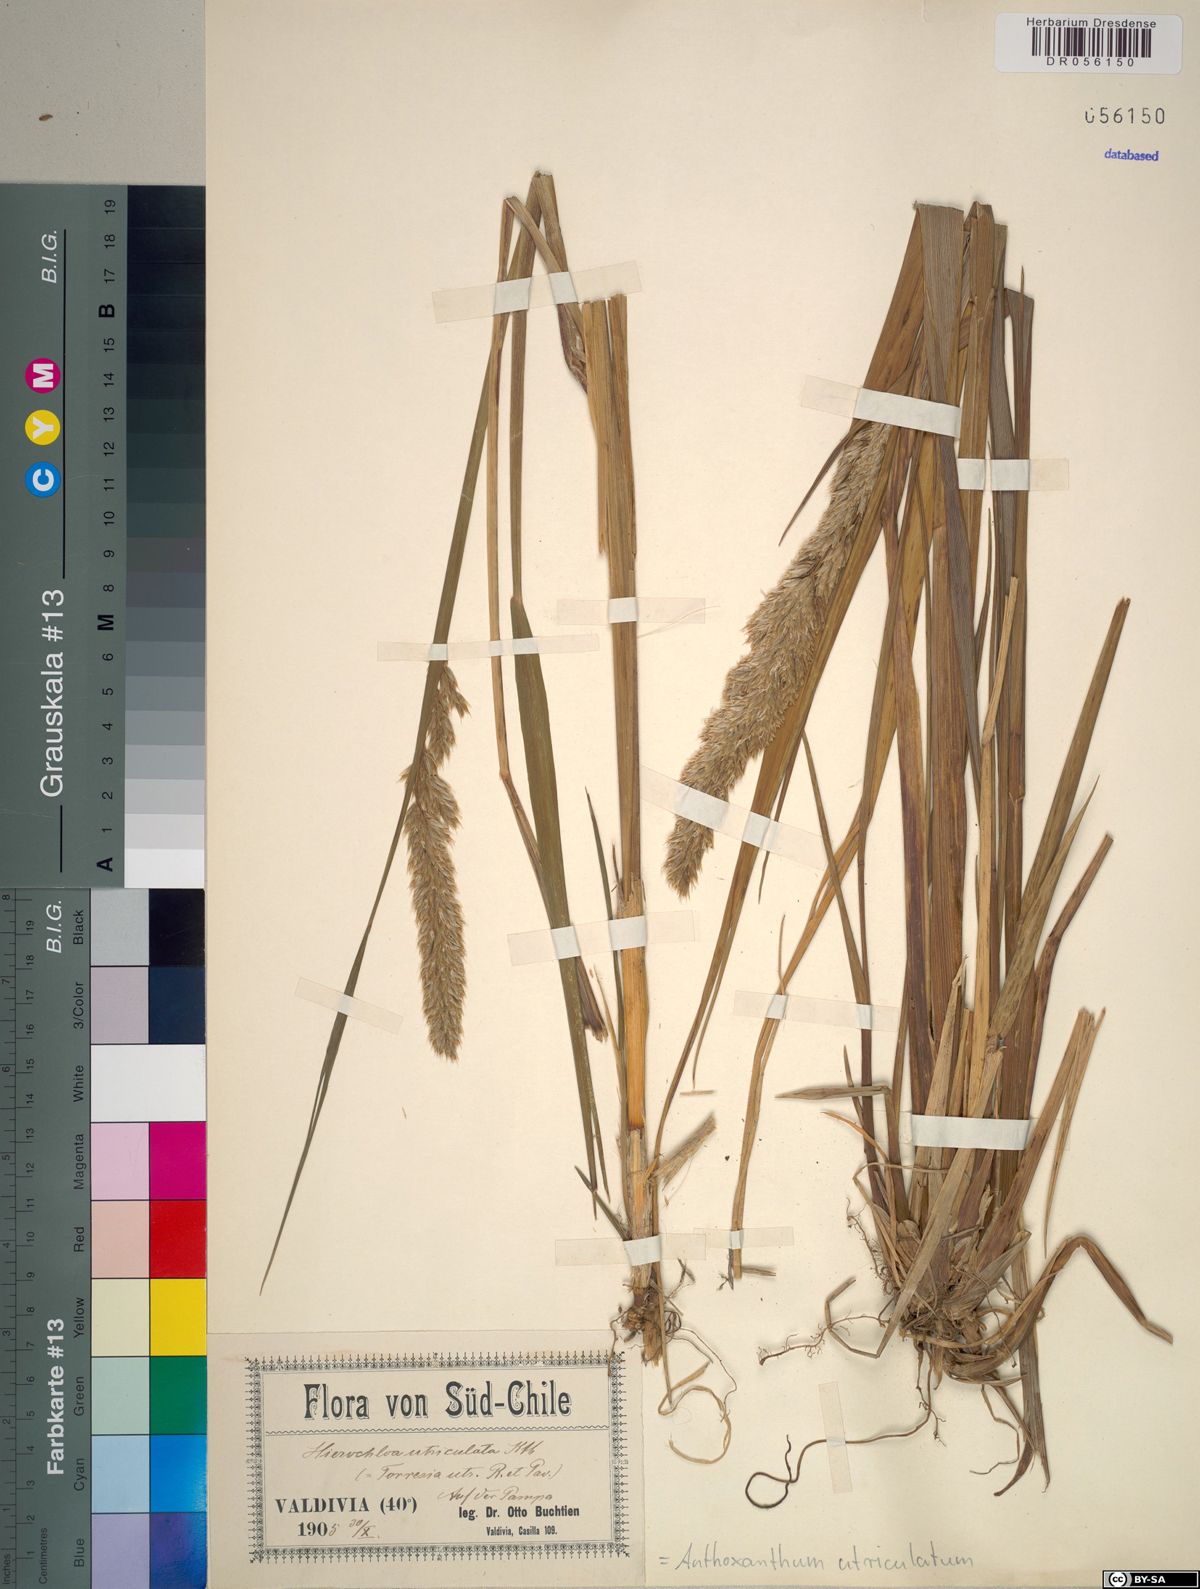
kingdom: Plantae
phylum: Tracheophyta
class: Liliopsida
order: Poales
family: Poaceae
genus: Anthoxanthum
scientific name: Anthoxanthum utriculatum
